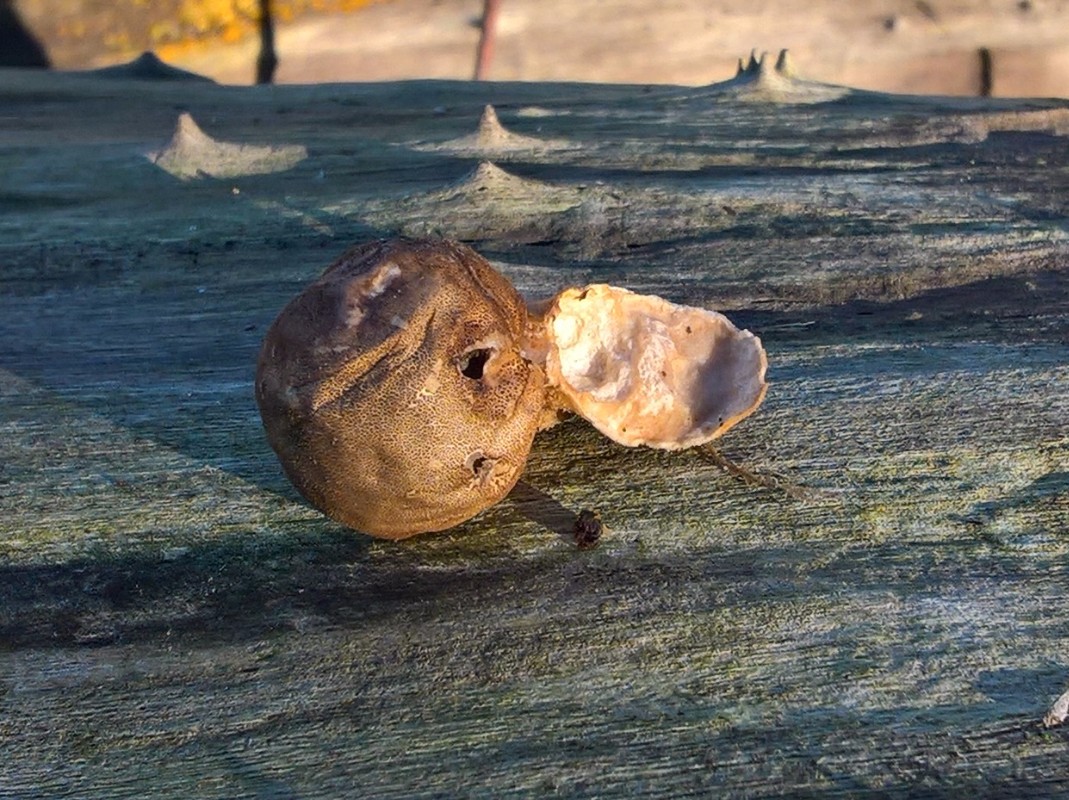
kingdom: Fungi
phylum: Basidiomycota
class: Agaricomycetes
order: Agaricales
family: Lycoperdaceae
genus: Apioperdon
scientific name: Apioperdon pyriforme
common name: pære-støvbold
